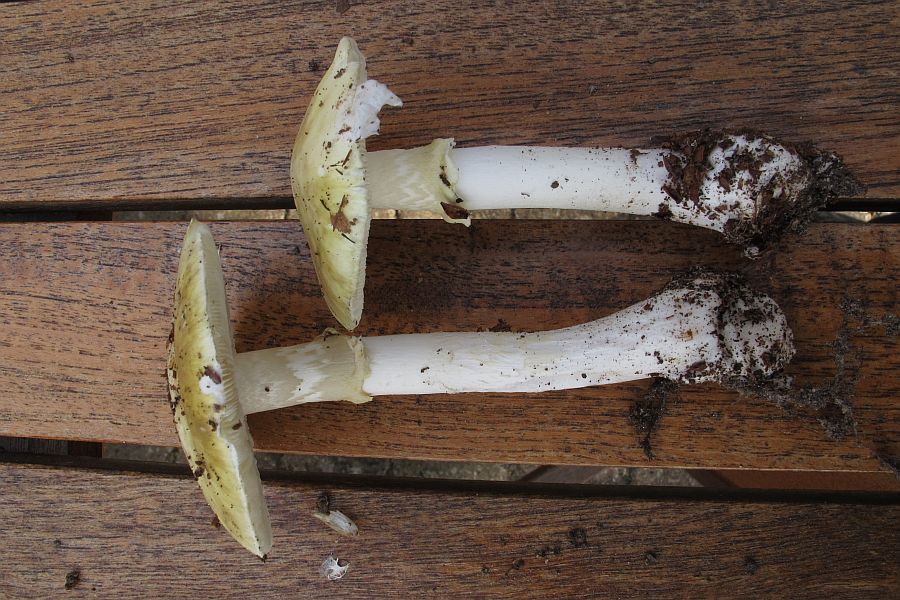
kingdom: Fungi
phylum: Basidiomycota
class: Agaricomycetes
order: Agaricales
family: Amanitaceae
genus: Amanita
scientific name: Amanita phalloides
